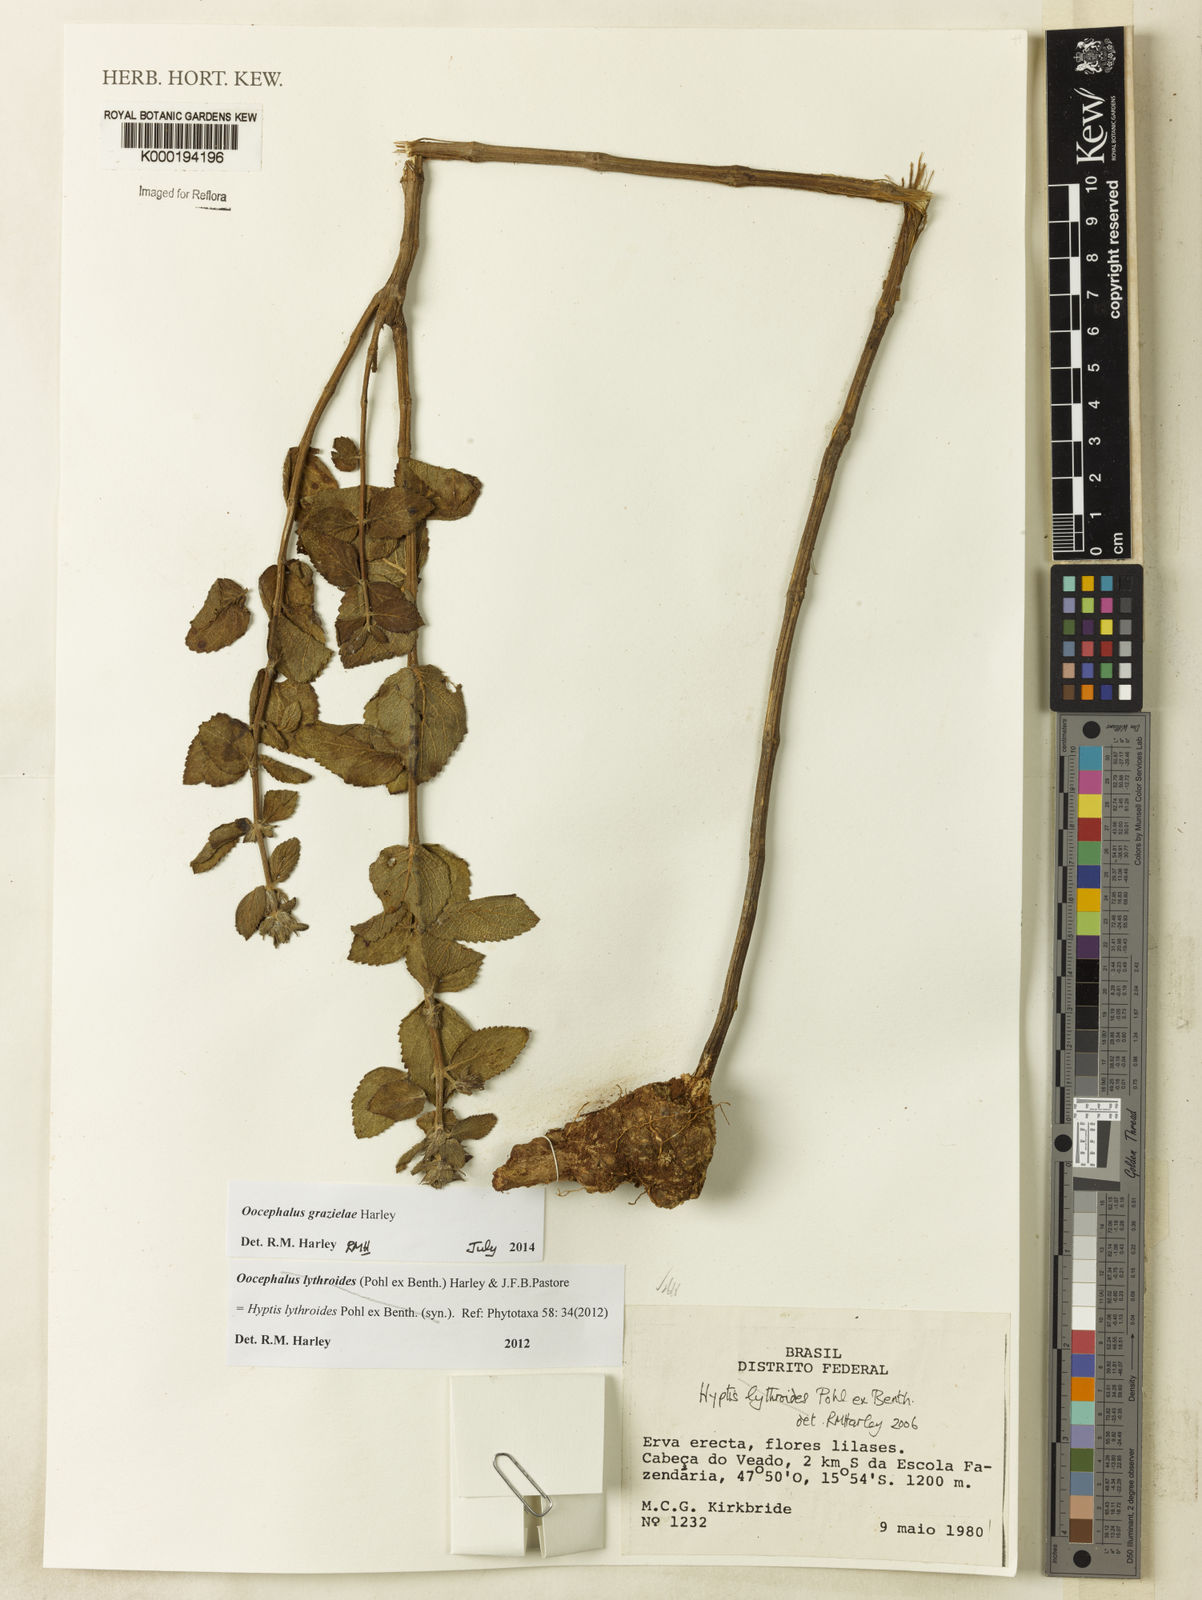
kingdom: Plantae
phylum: Tracheophyta
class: Magnoliopsida
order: Lamiales
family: Lamiaceae
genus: Oocephalus
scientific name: Oocephalus lythroides
